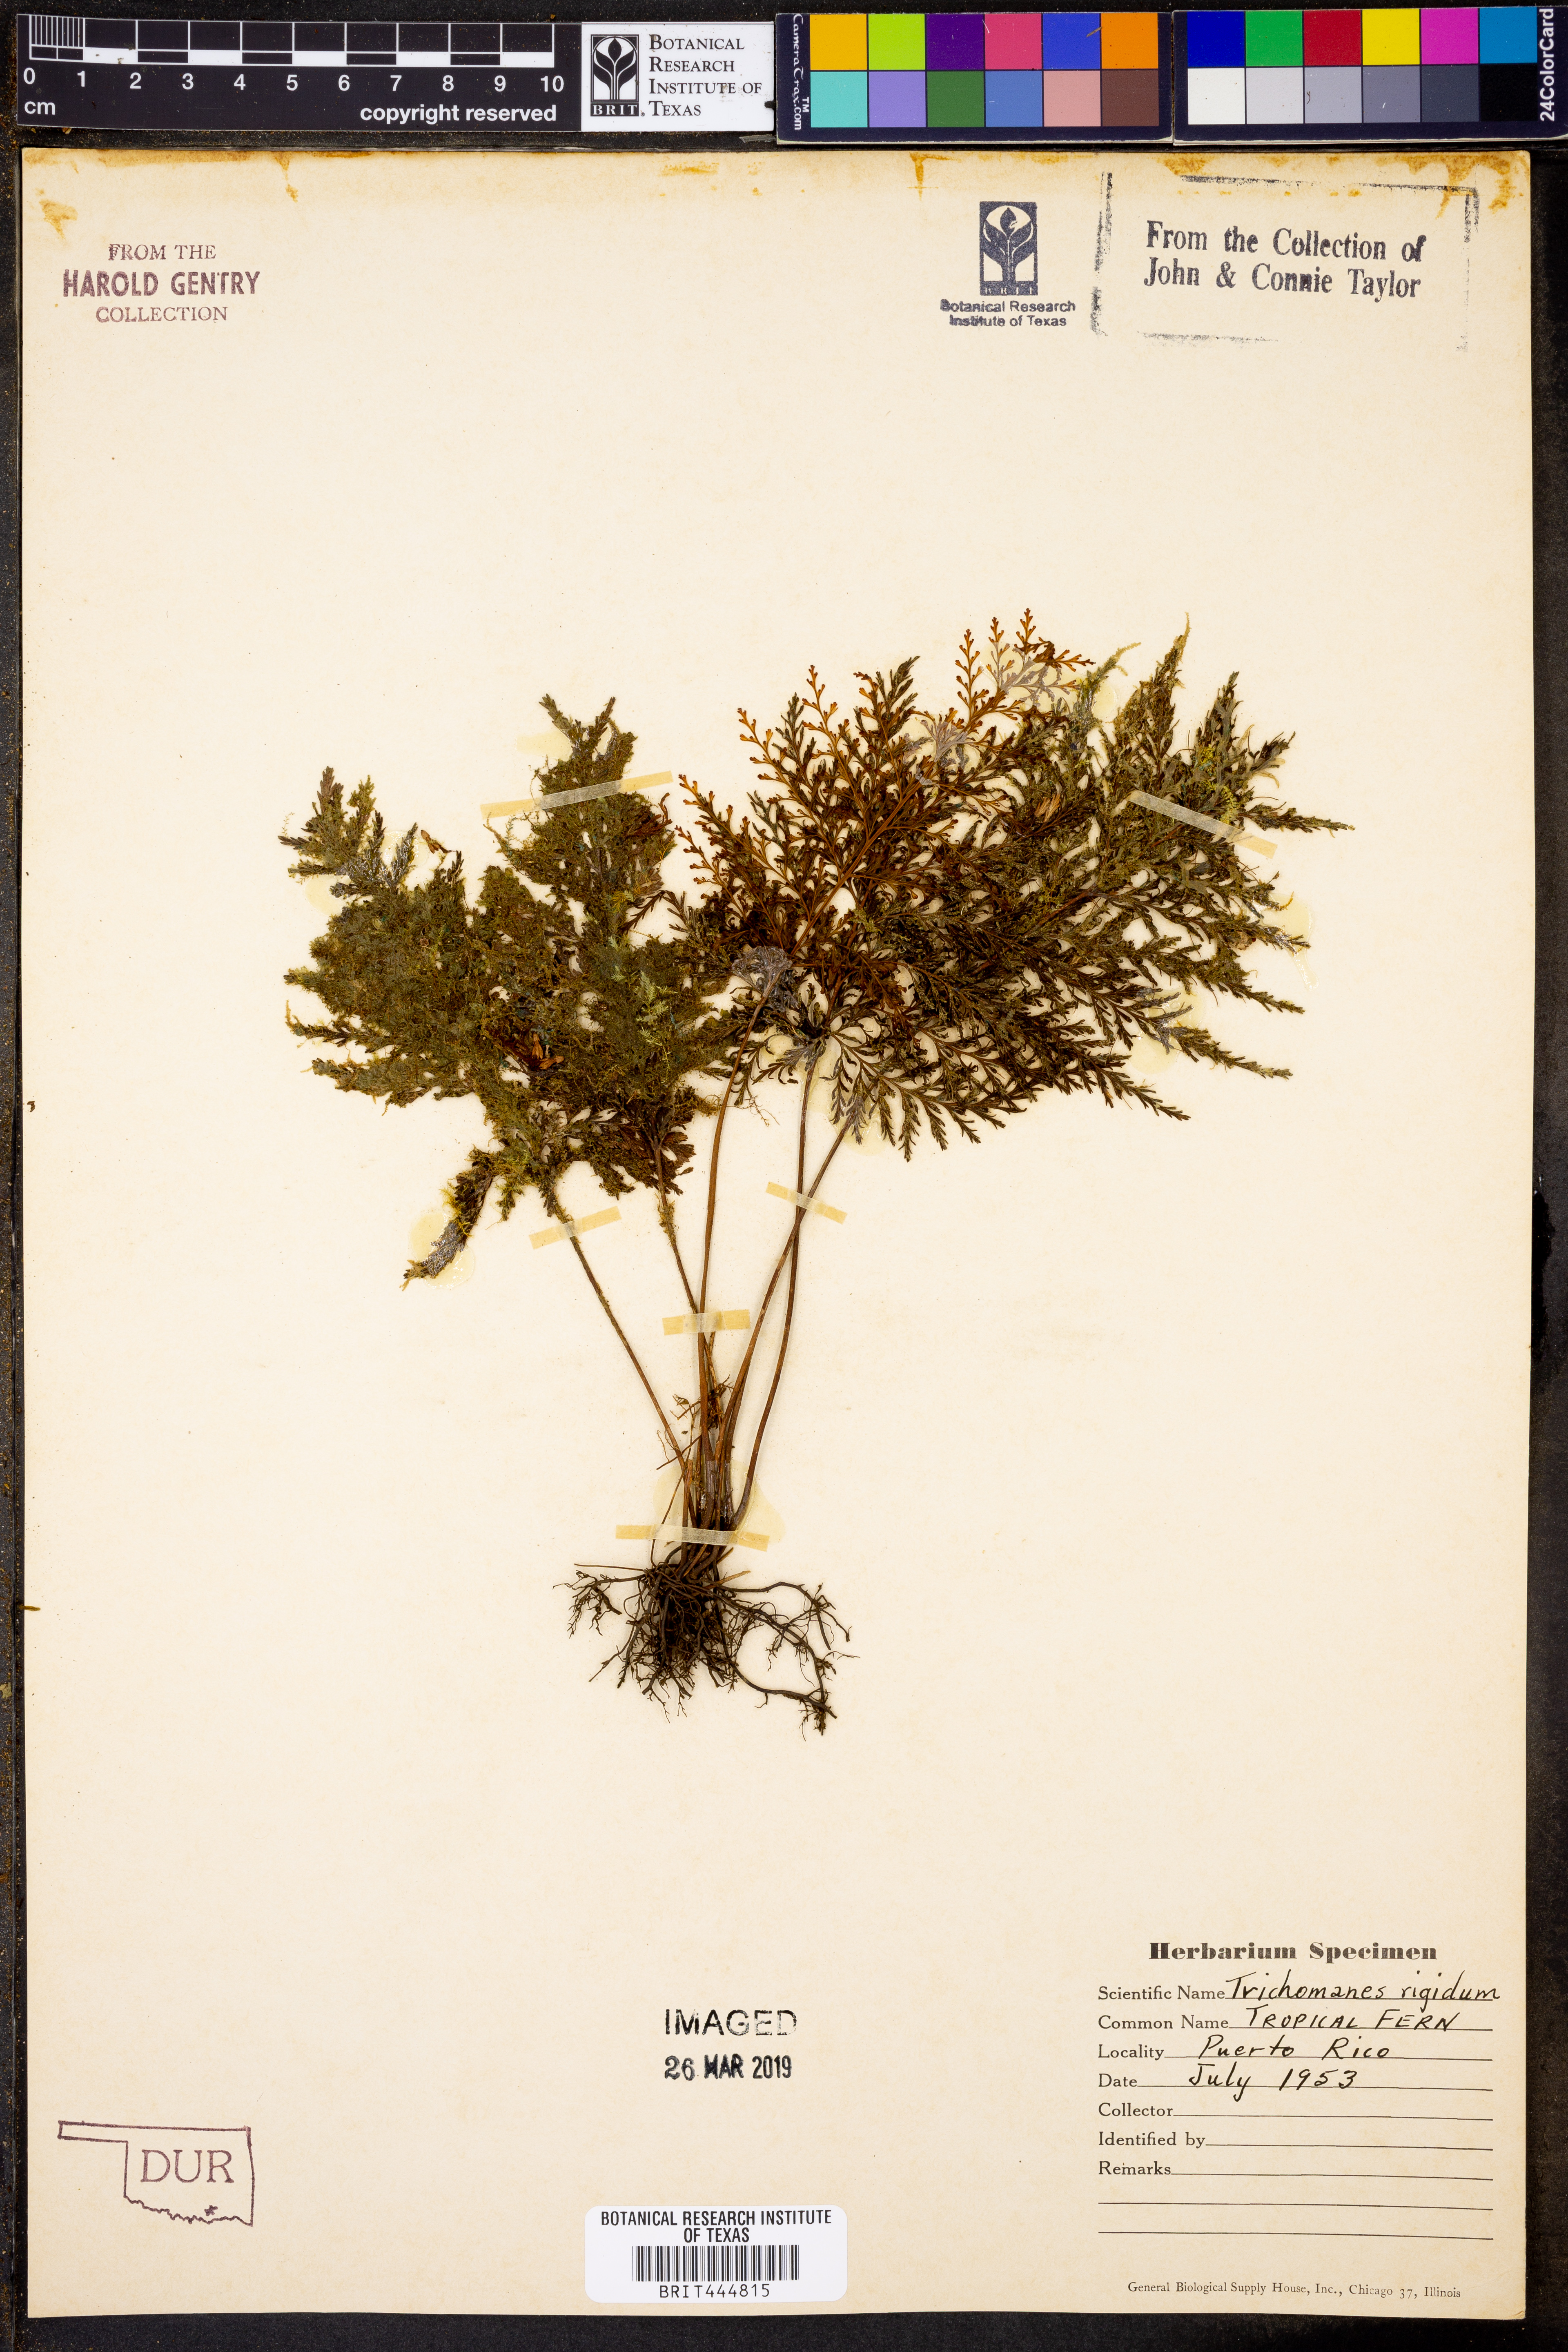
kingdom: Plantae
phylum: Tracheophyta
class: Polypodiopsida
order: Hymenophyllales
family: Hymenophyllaceae
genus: Abrodictyum
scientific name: Abrodictyum rigidum
